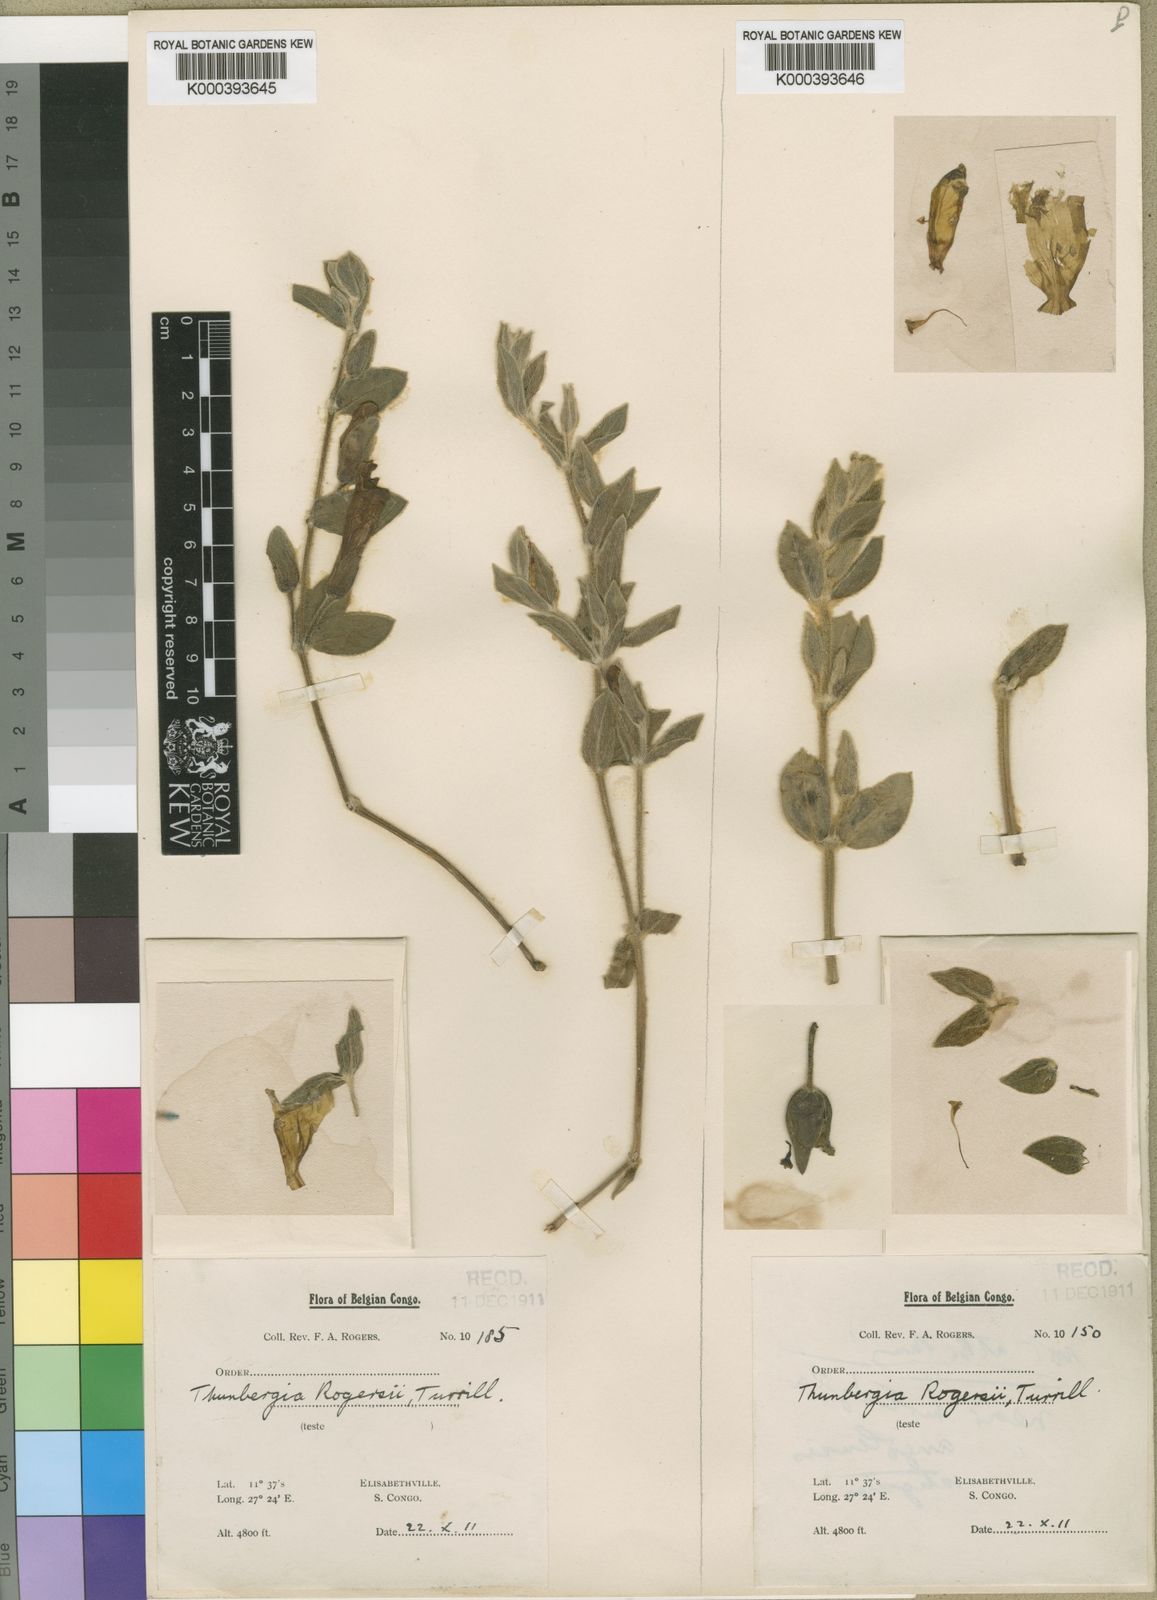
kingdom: Plantae
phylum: Tracheophyta
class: Magnoliopsida
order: Lamiales
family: Acanthaceae
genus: Thunbergia
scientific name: Thunbergia rogersii
